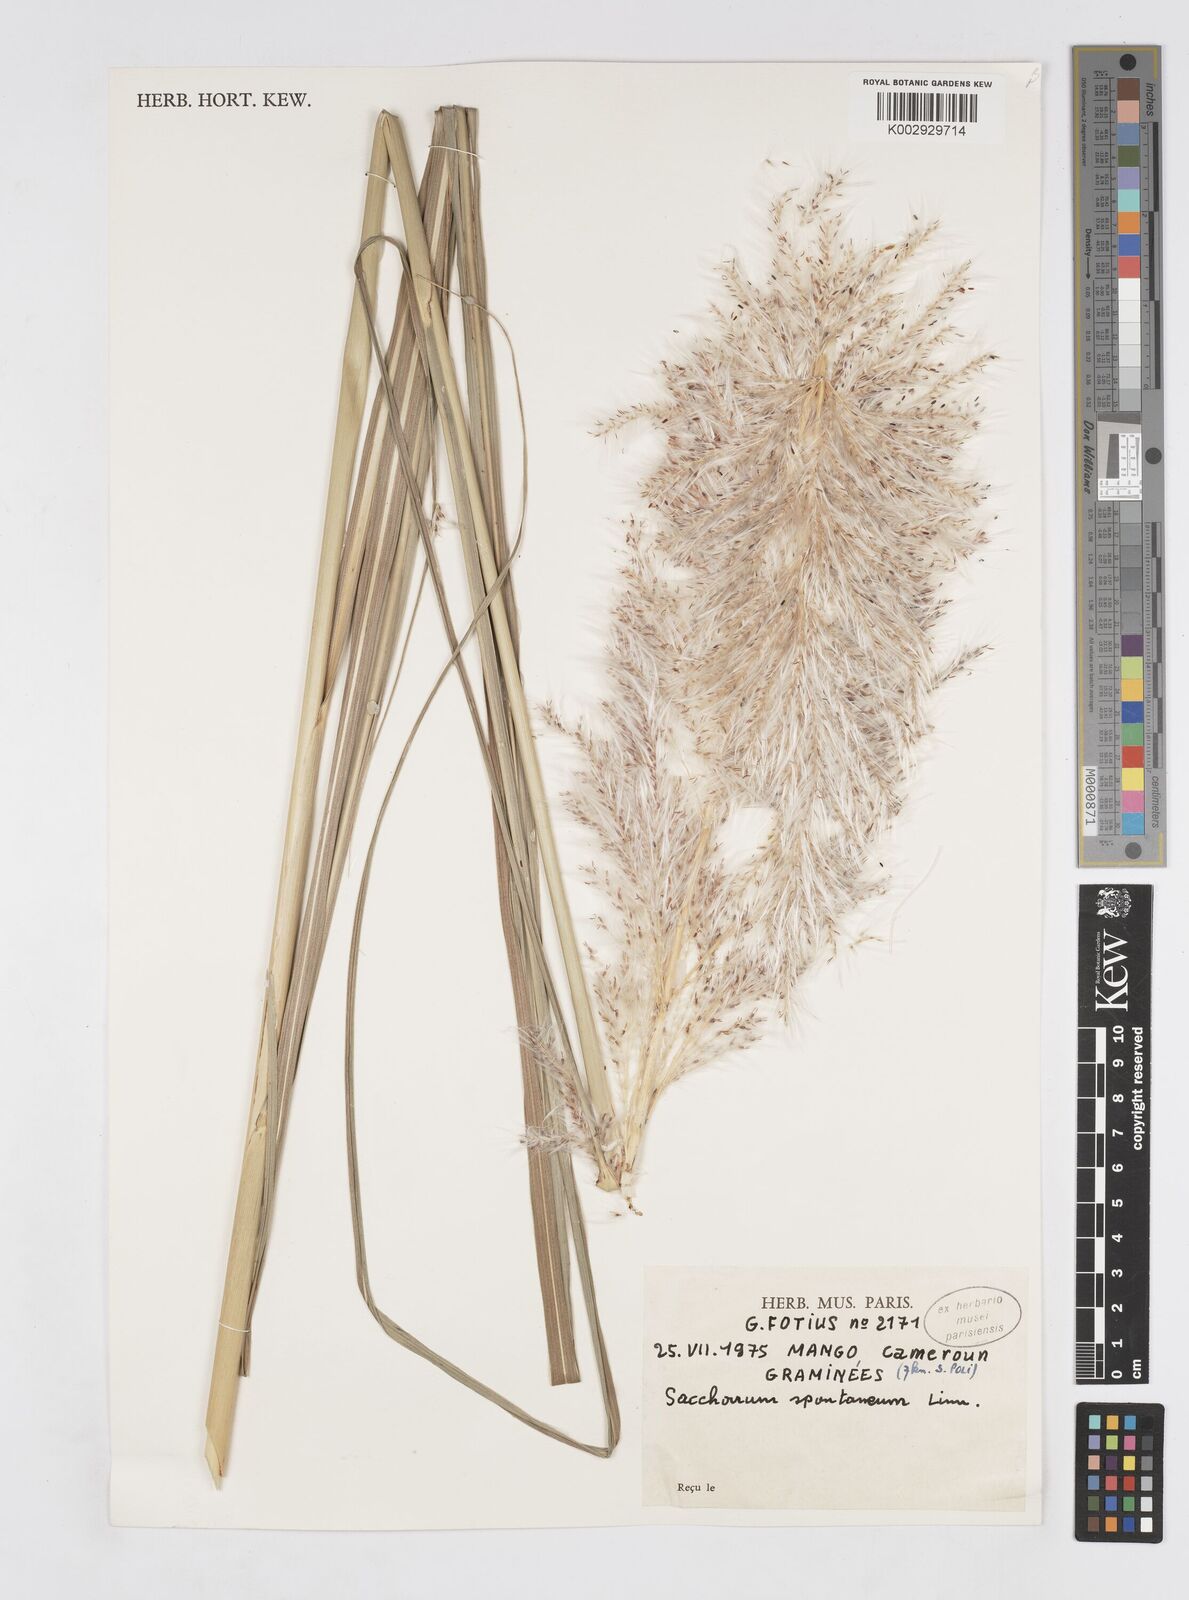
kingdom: Plantae
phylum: Tracheophyta
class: Liliopsida
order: Poales
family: Poaceae
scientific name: Poaceae
